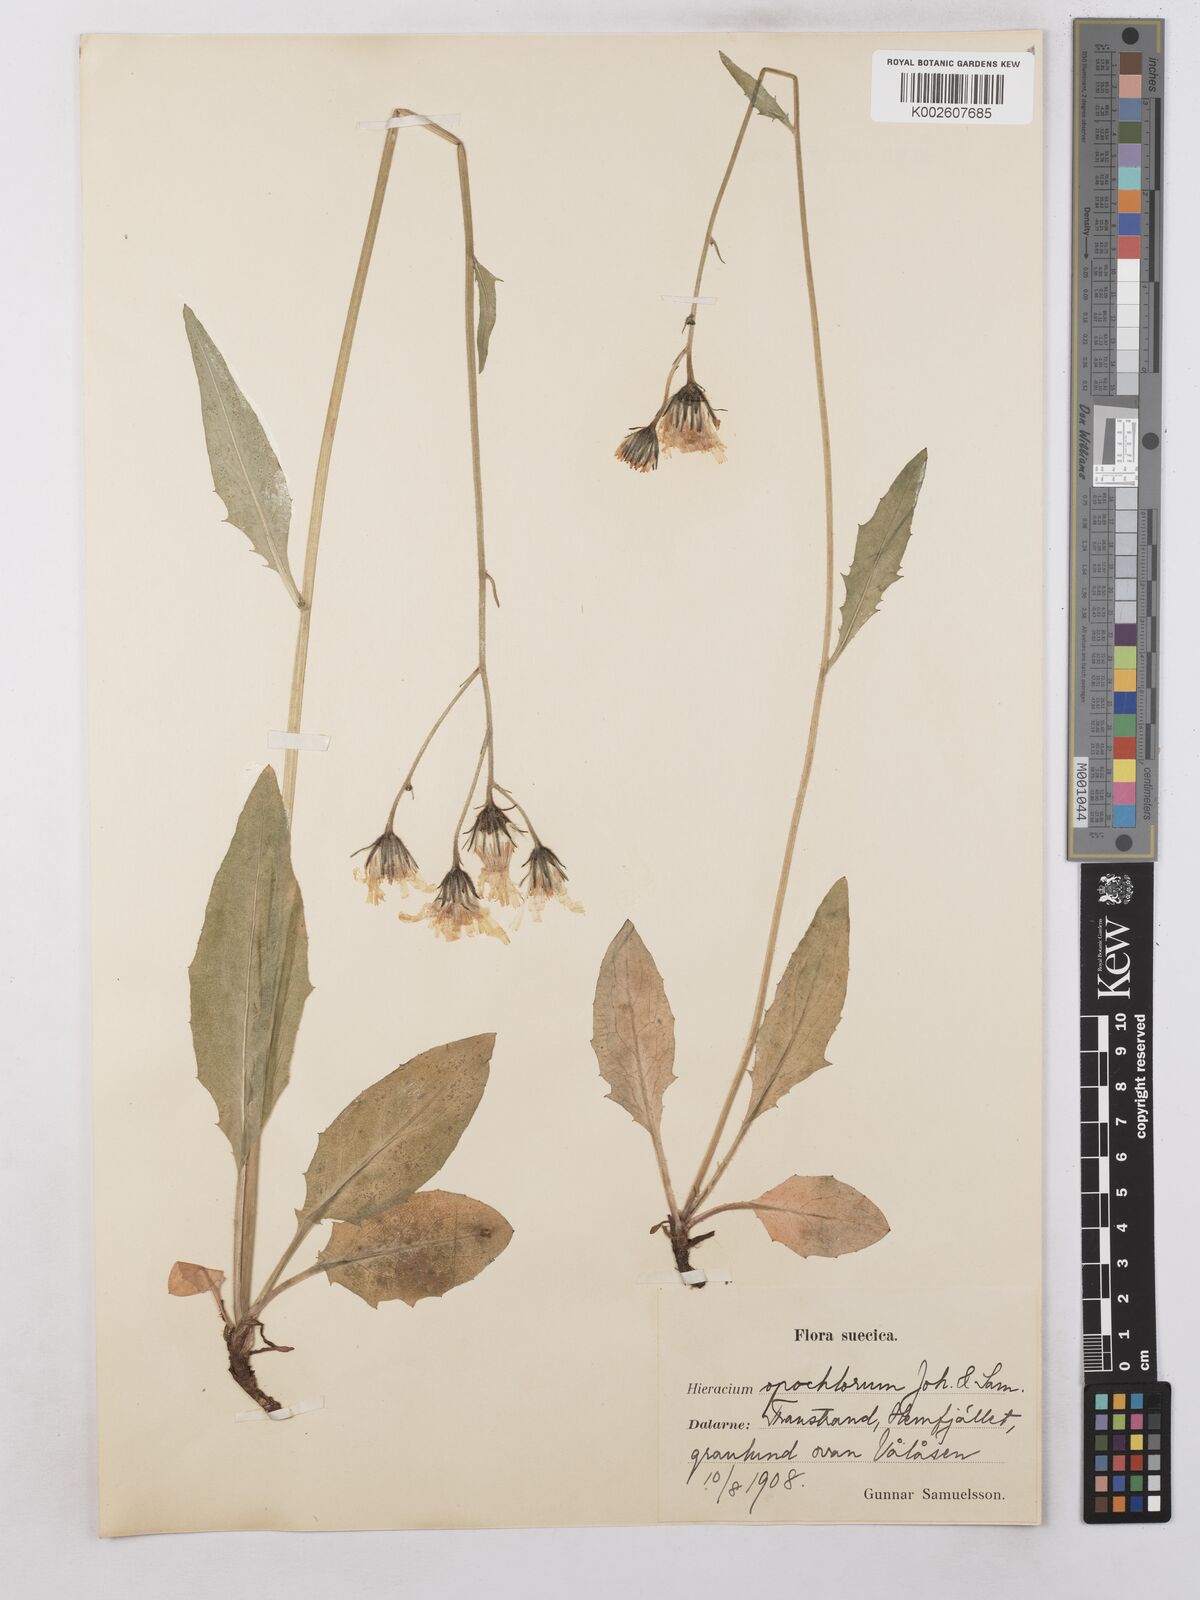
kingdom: Plantae
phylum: Tracheophyta
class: Magnoliopsida
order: Asterales
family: Asteraceae
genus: Hieracium
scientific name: Hieracium subramosum
